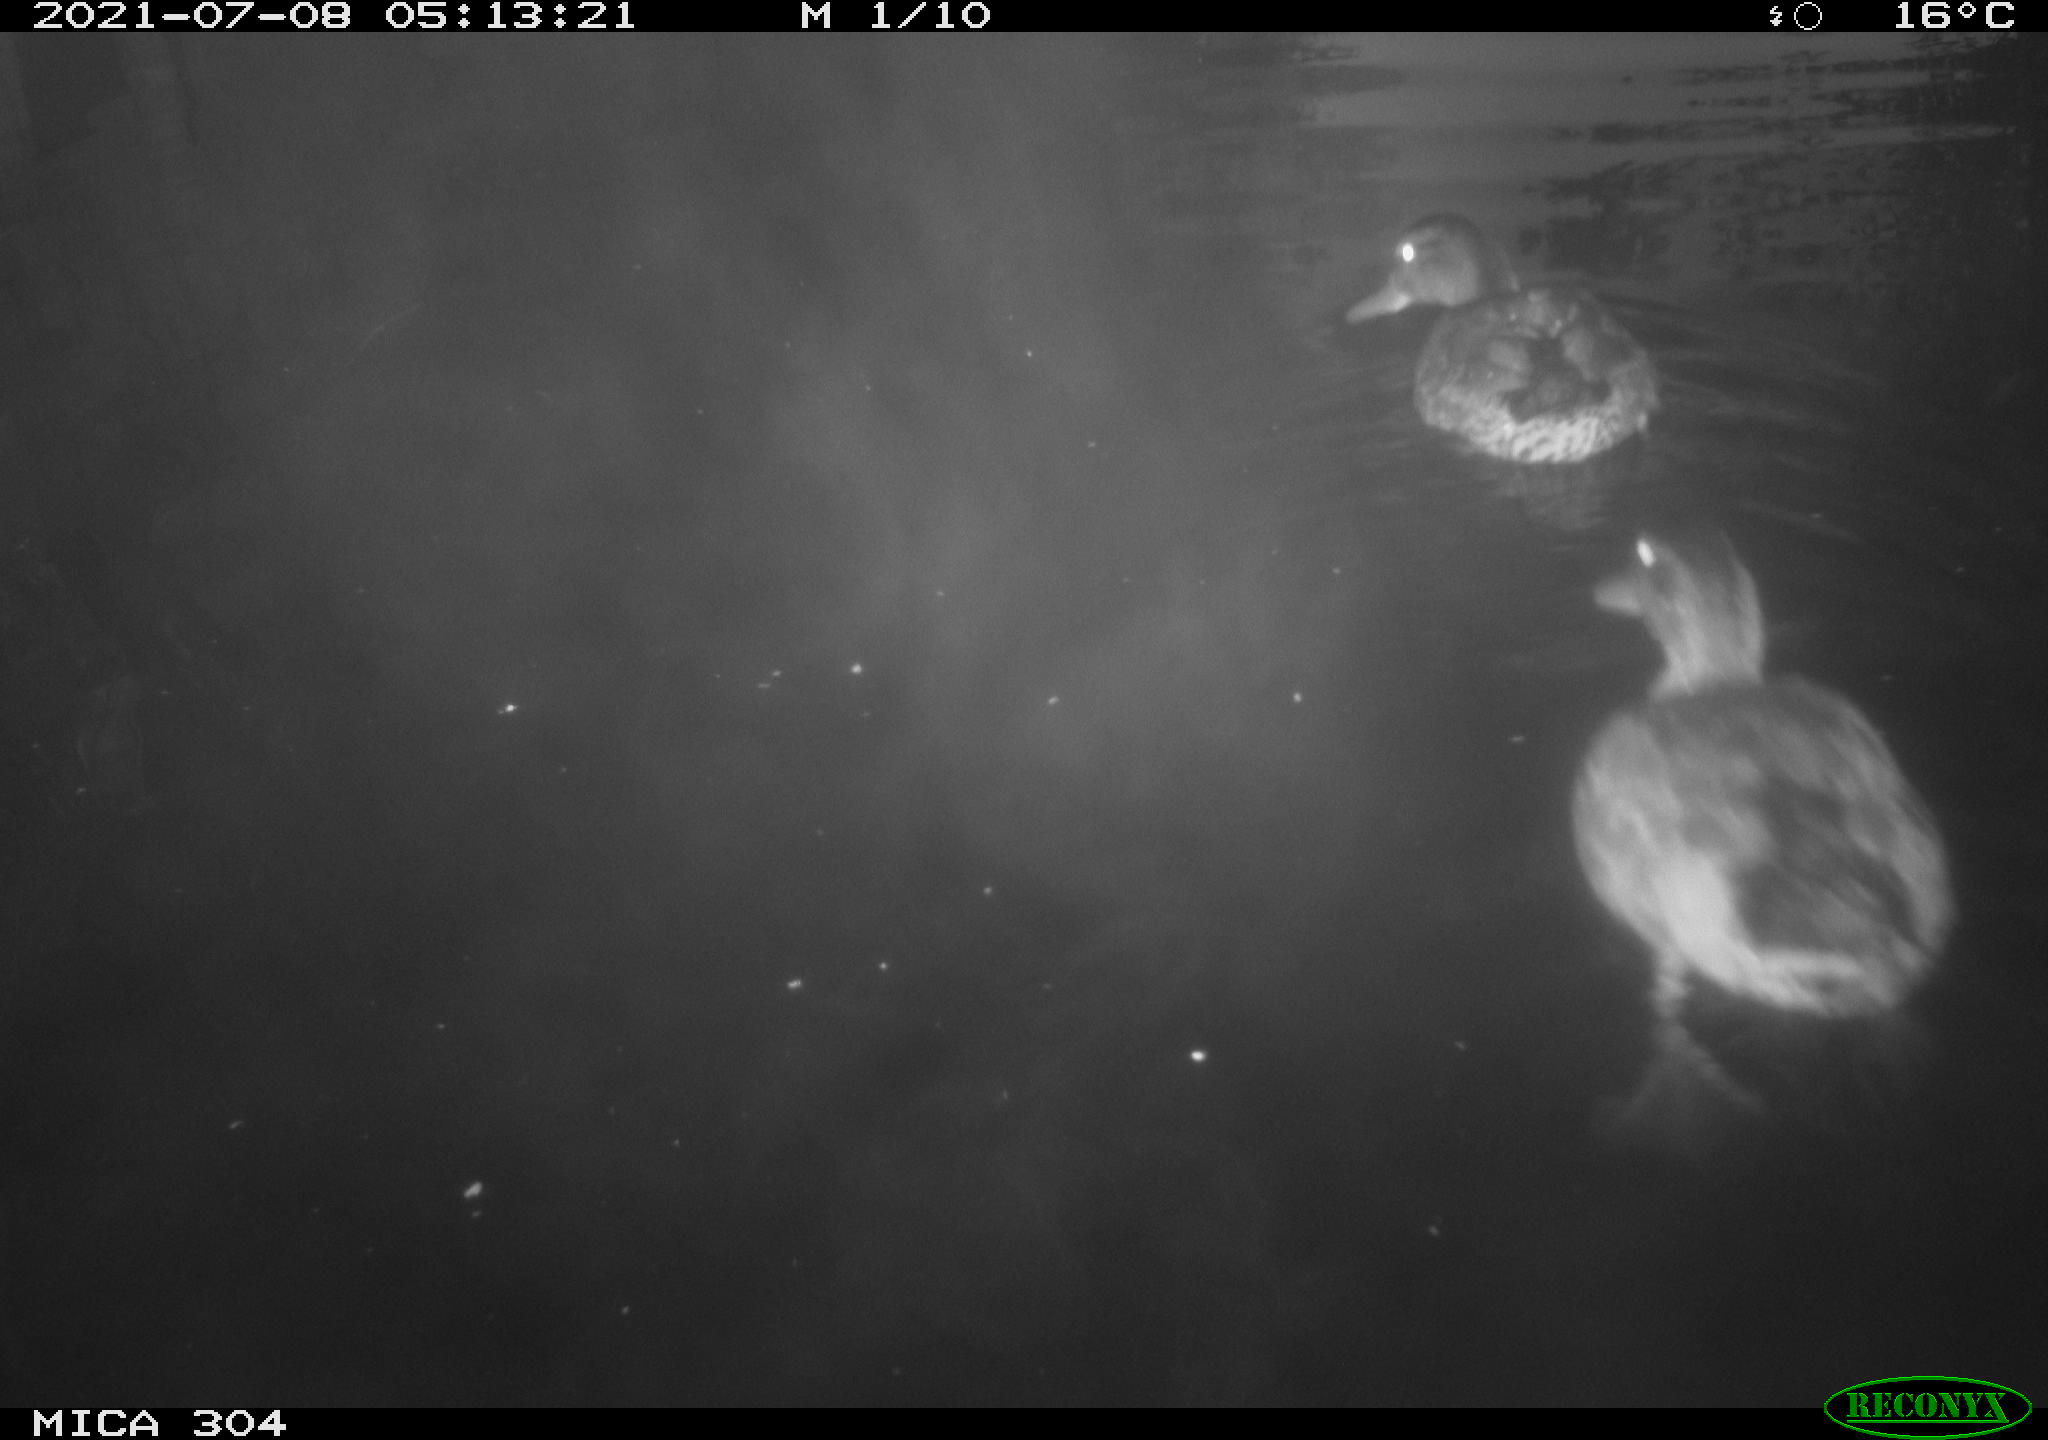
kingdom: Animalia
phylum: Chordata
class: Aves
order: Anseriformes
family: Anatidae
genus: Anas
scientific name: Anas platyrhynchos
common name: Mallard
